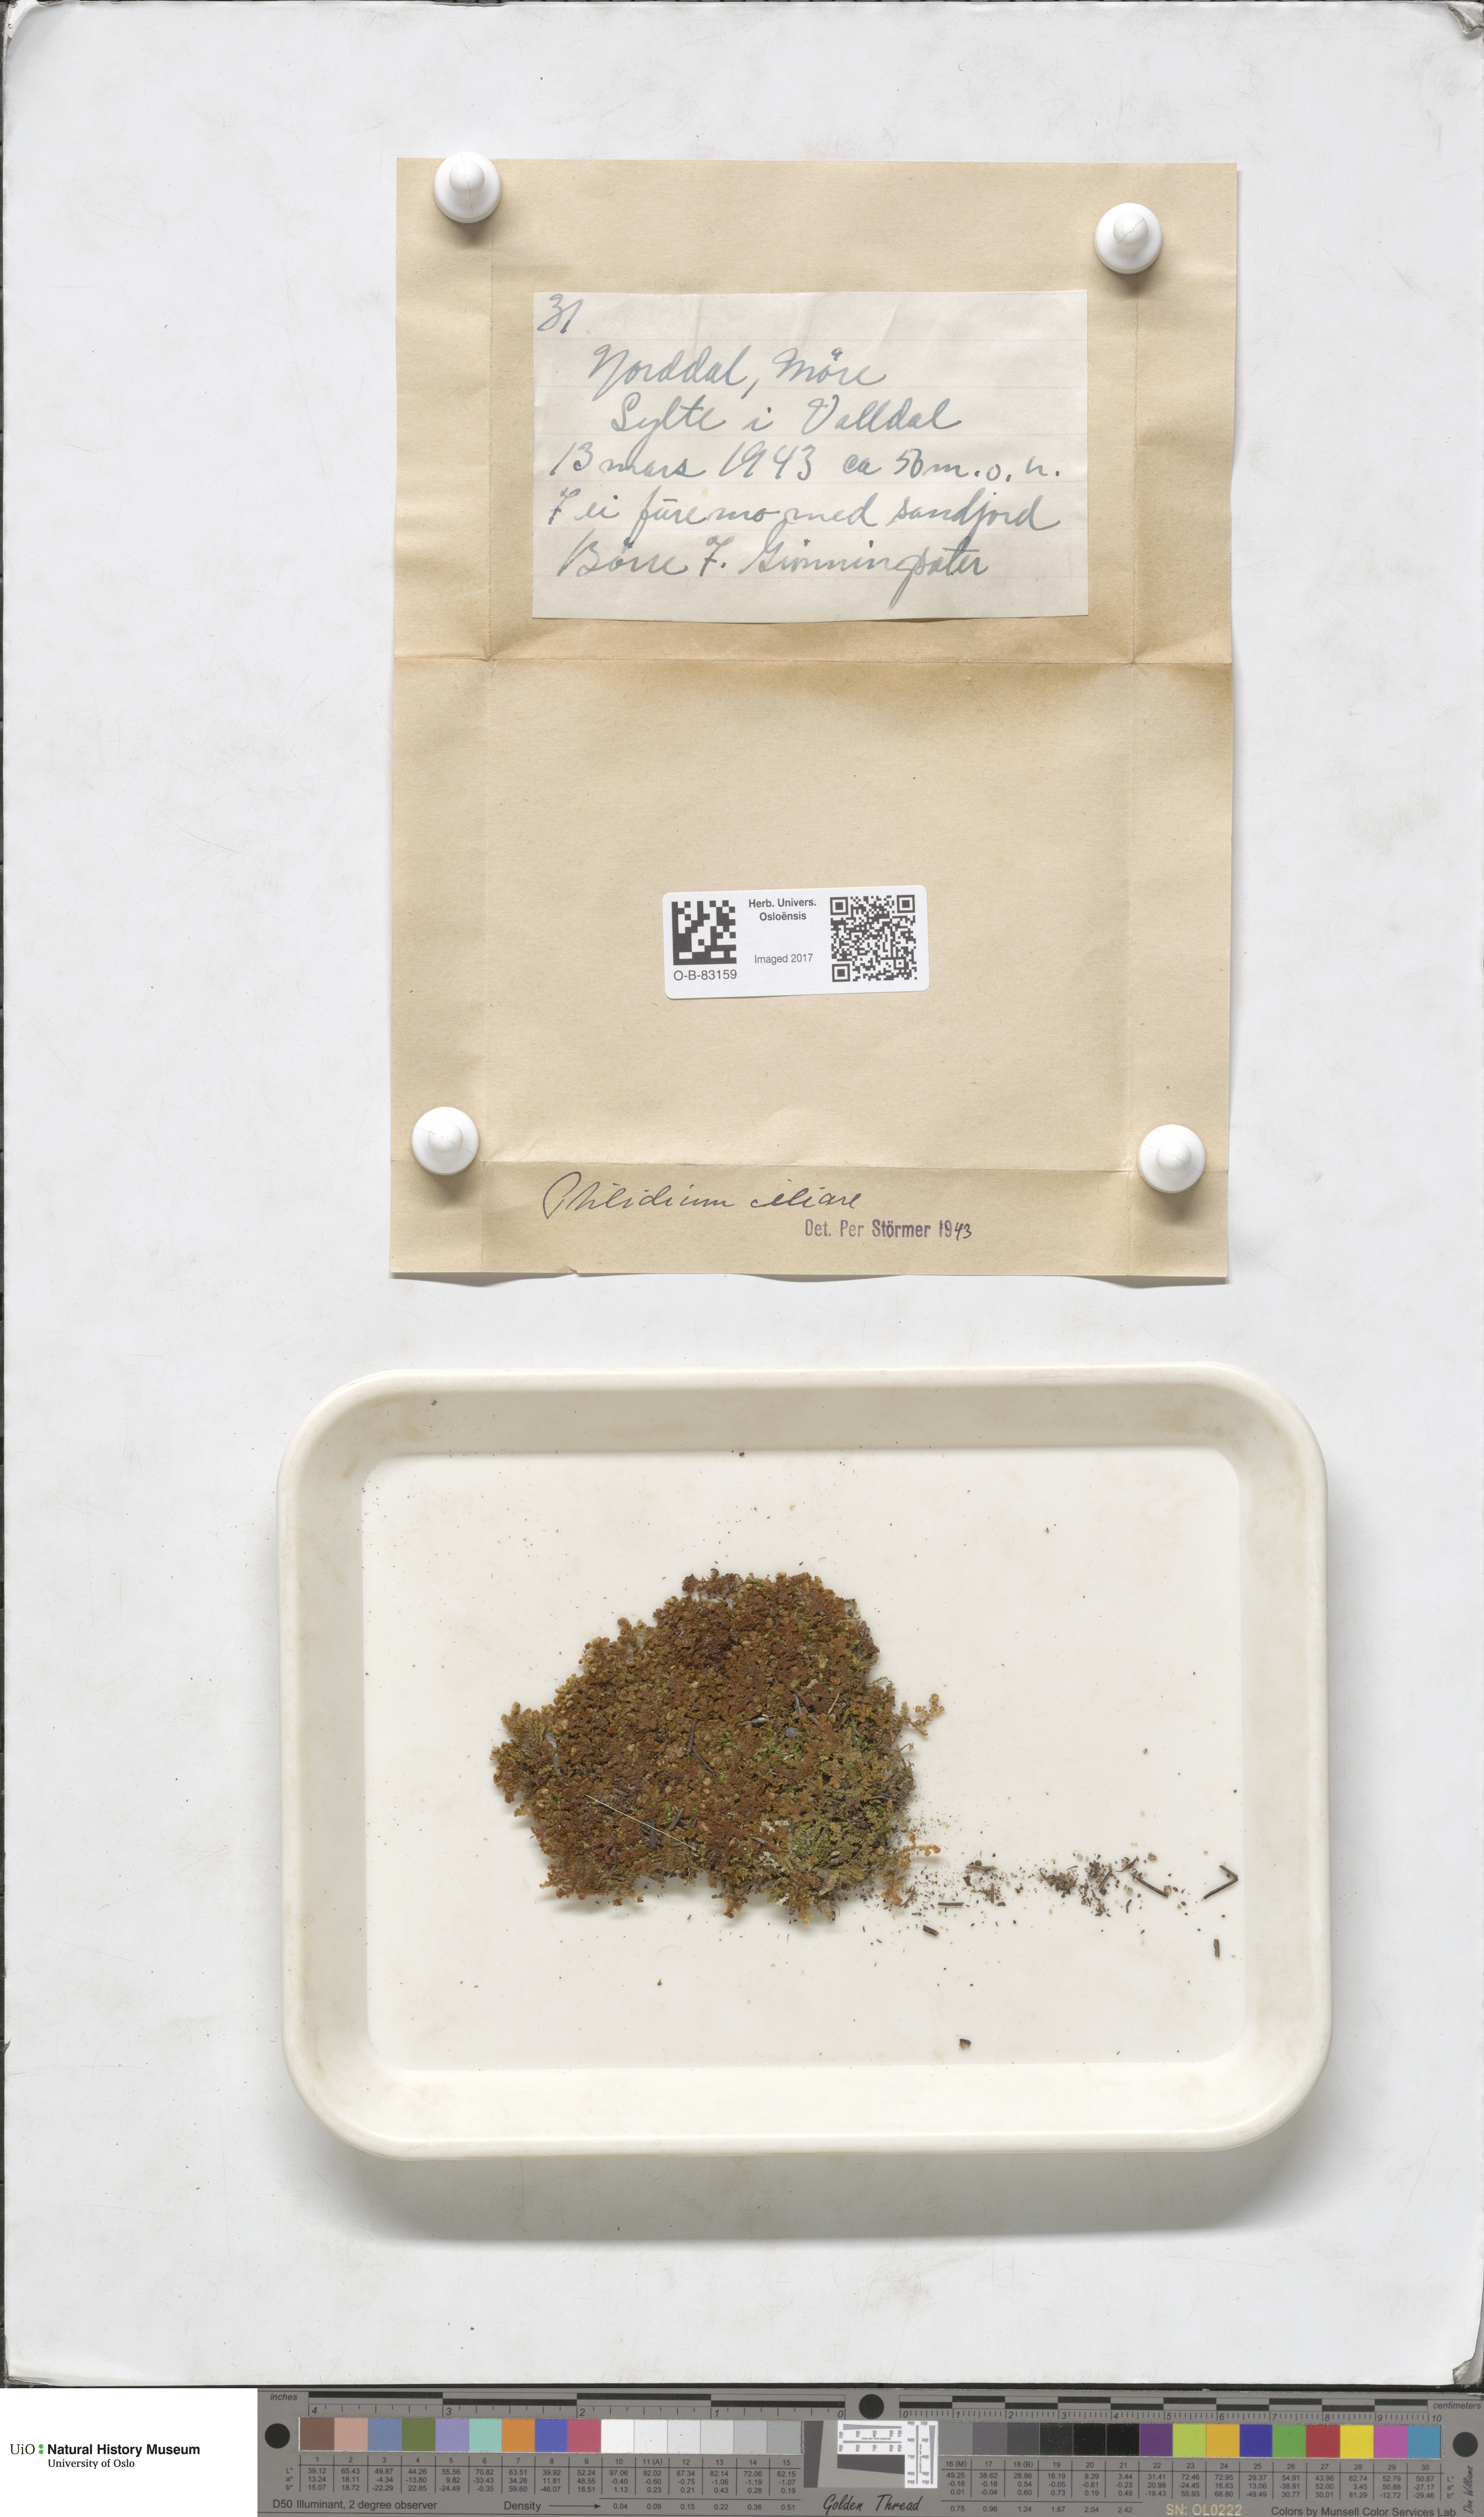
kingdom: Plantae
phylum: Marchantiophyta
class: Jungermanniopsida
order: Ptilidiales
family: Ptilidiaceae
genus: Ptilidium
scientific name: Ptilidium ciliare
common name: Ciliate fringewort
